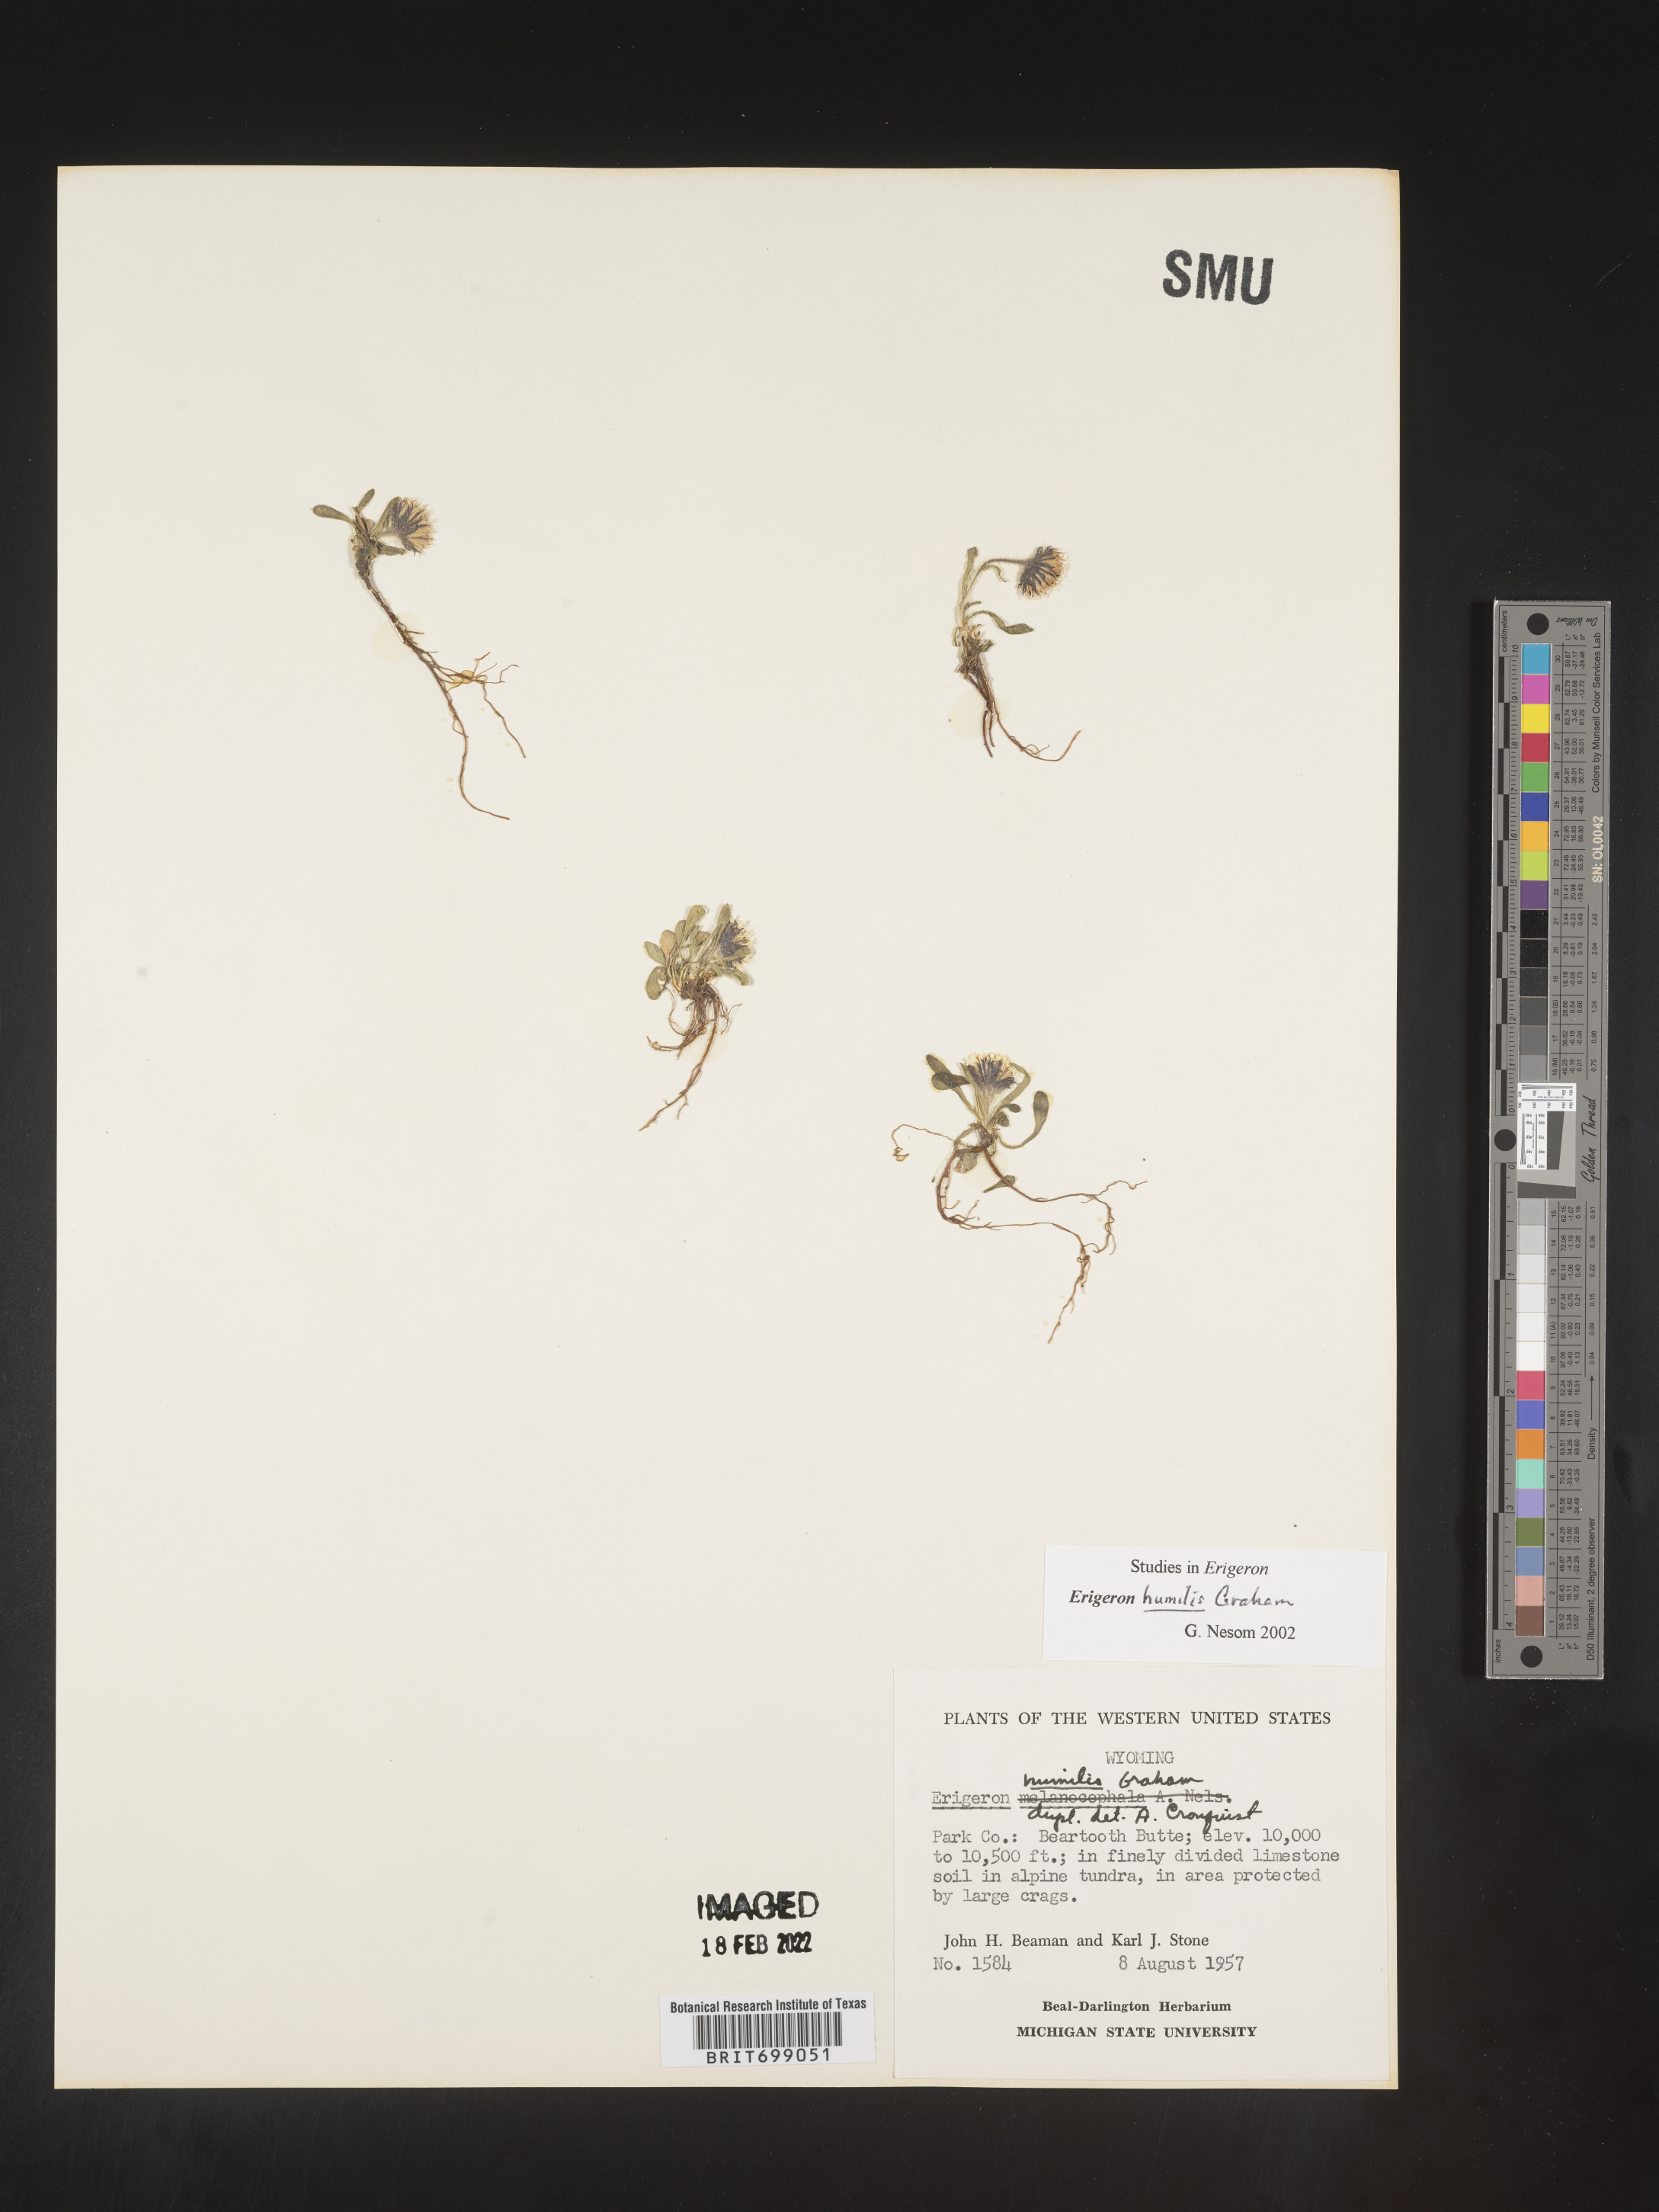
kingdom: Plantae
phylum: Tracheophyta
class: Magnoliopsida
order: Asterales
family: Asteraceae
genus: Erigeron
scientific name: Erigeron humilis
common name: Arctic-alpine fleabane
